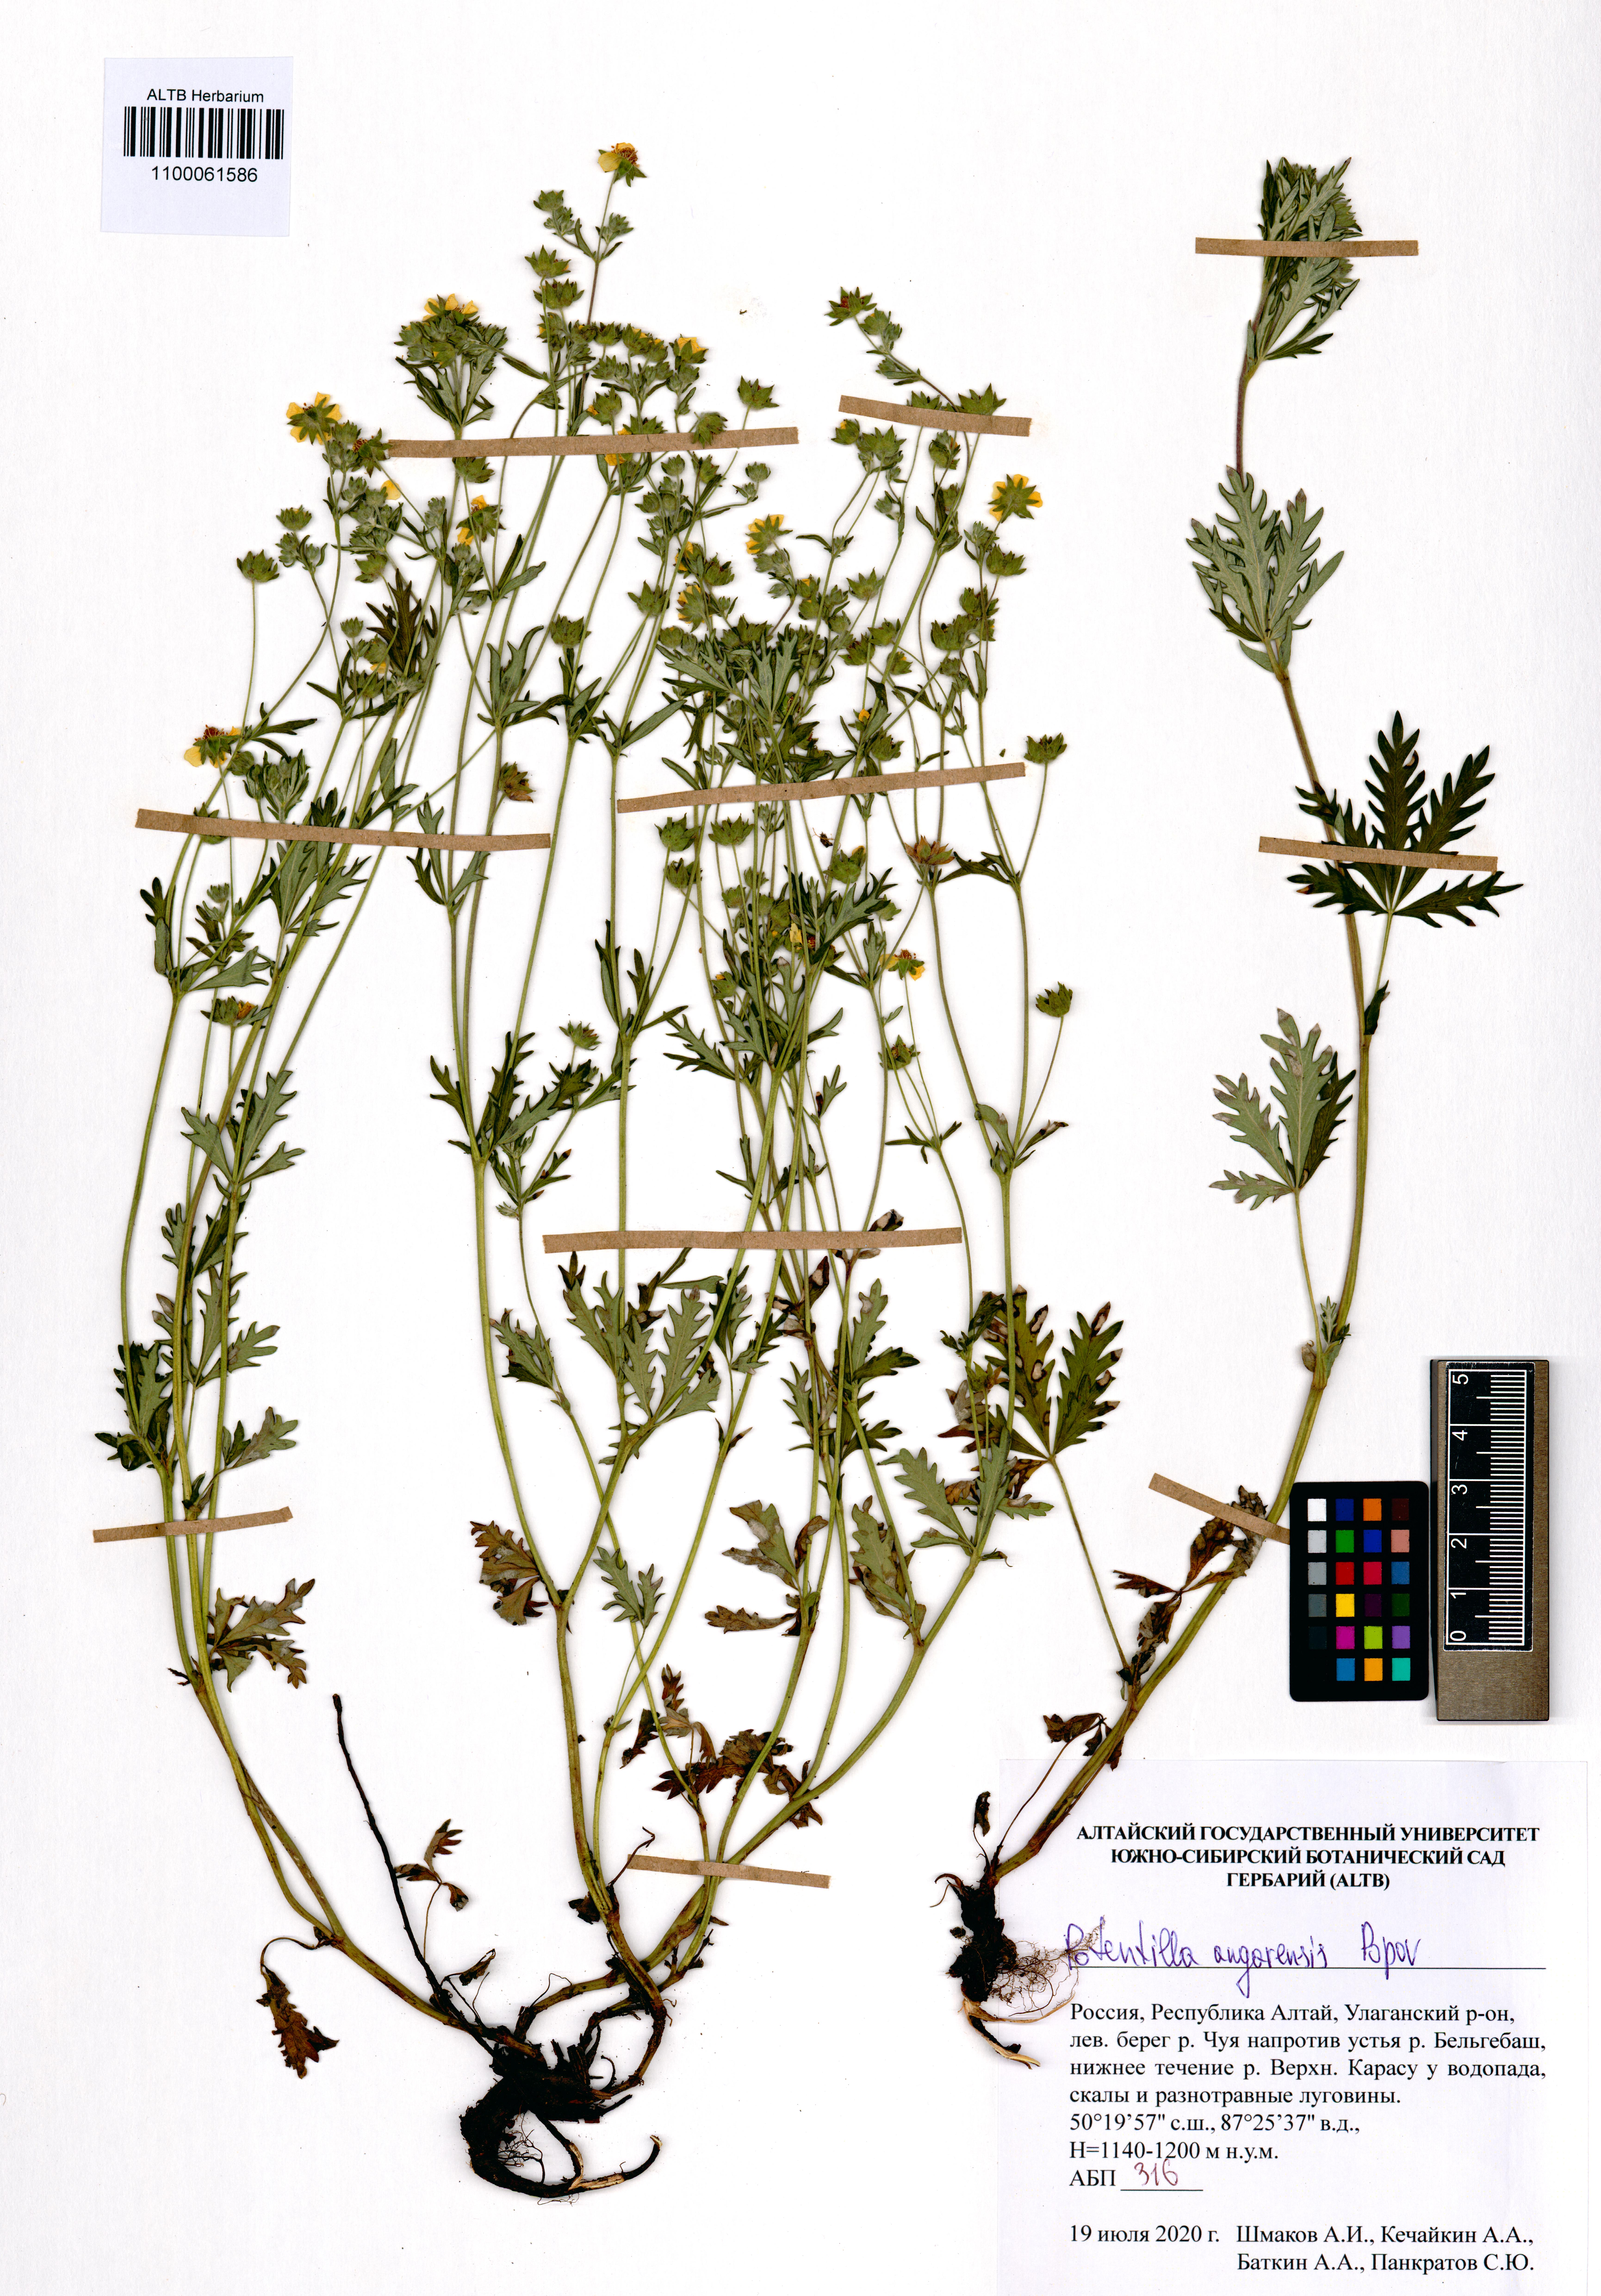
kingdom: Plantae
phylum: Tracheophyta
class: Magnoliopsida
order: Rosales
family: Rosaceae
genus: Potentilla
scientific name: Potentilla angarensis
